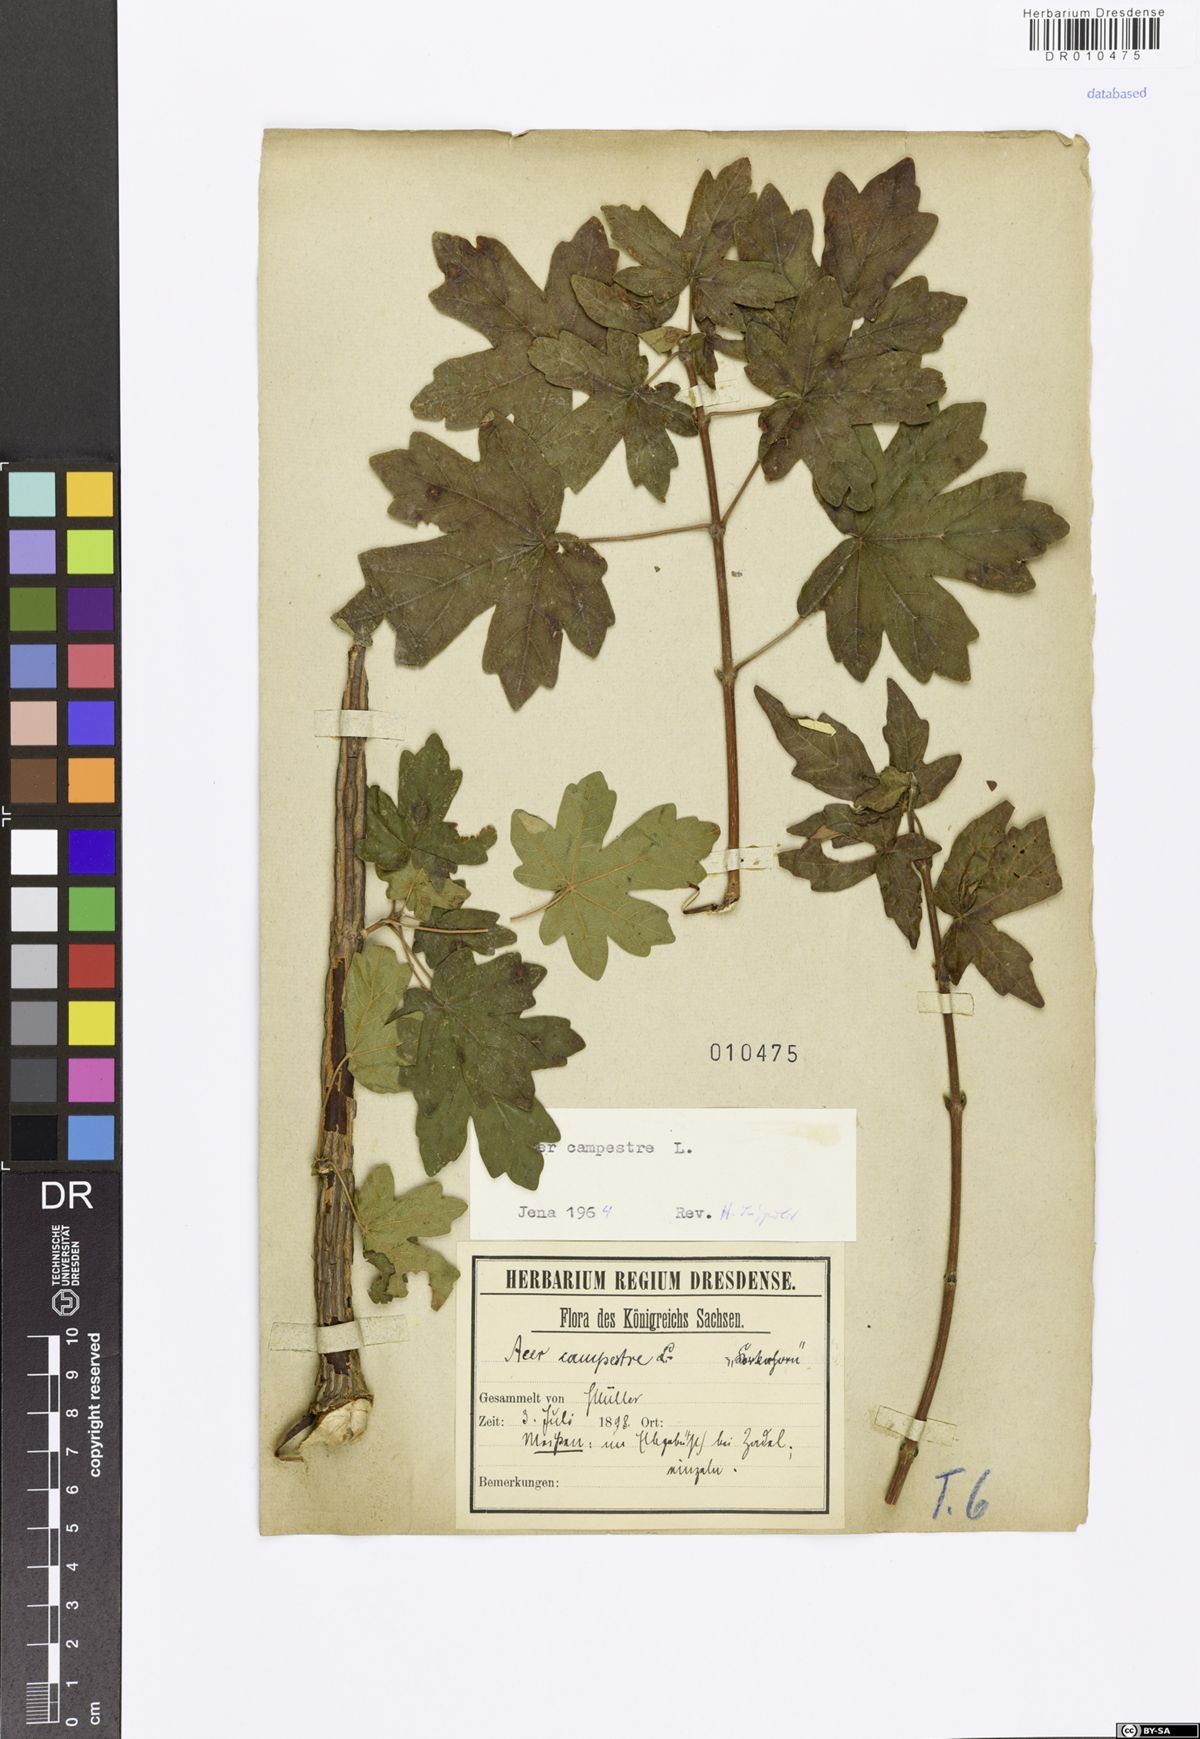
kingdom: Plantae
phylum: Tracheophyta
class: Magnoliopsida
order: Sapindales
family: Sapindaceae
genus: Acer
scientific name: Acer campestre
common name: Field maple
